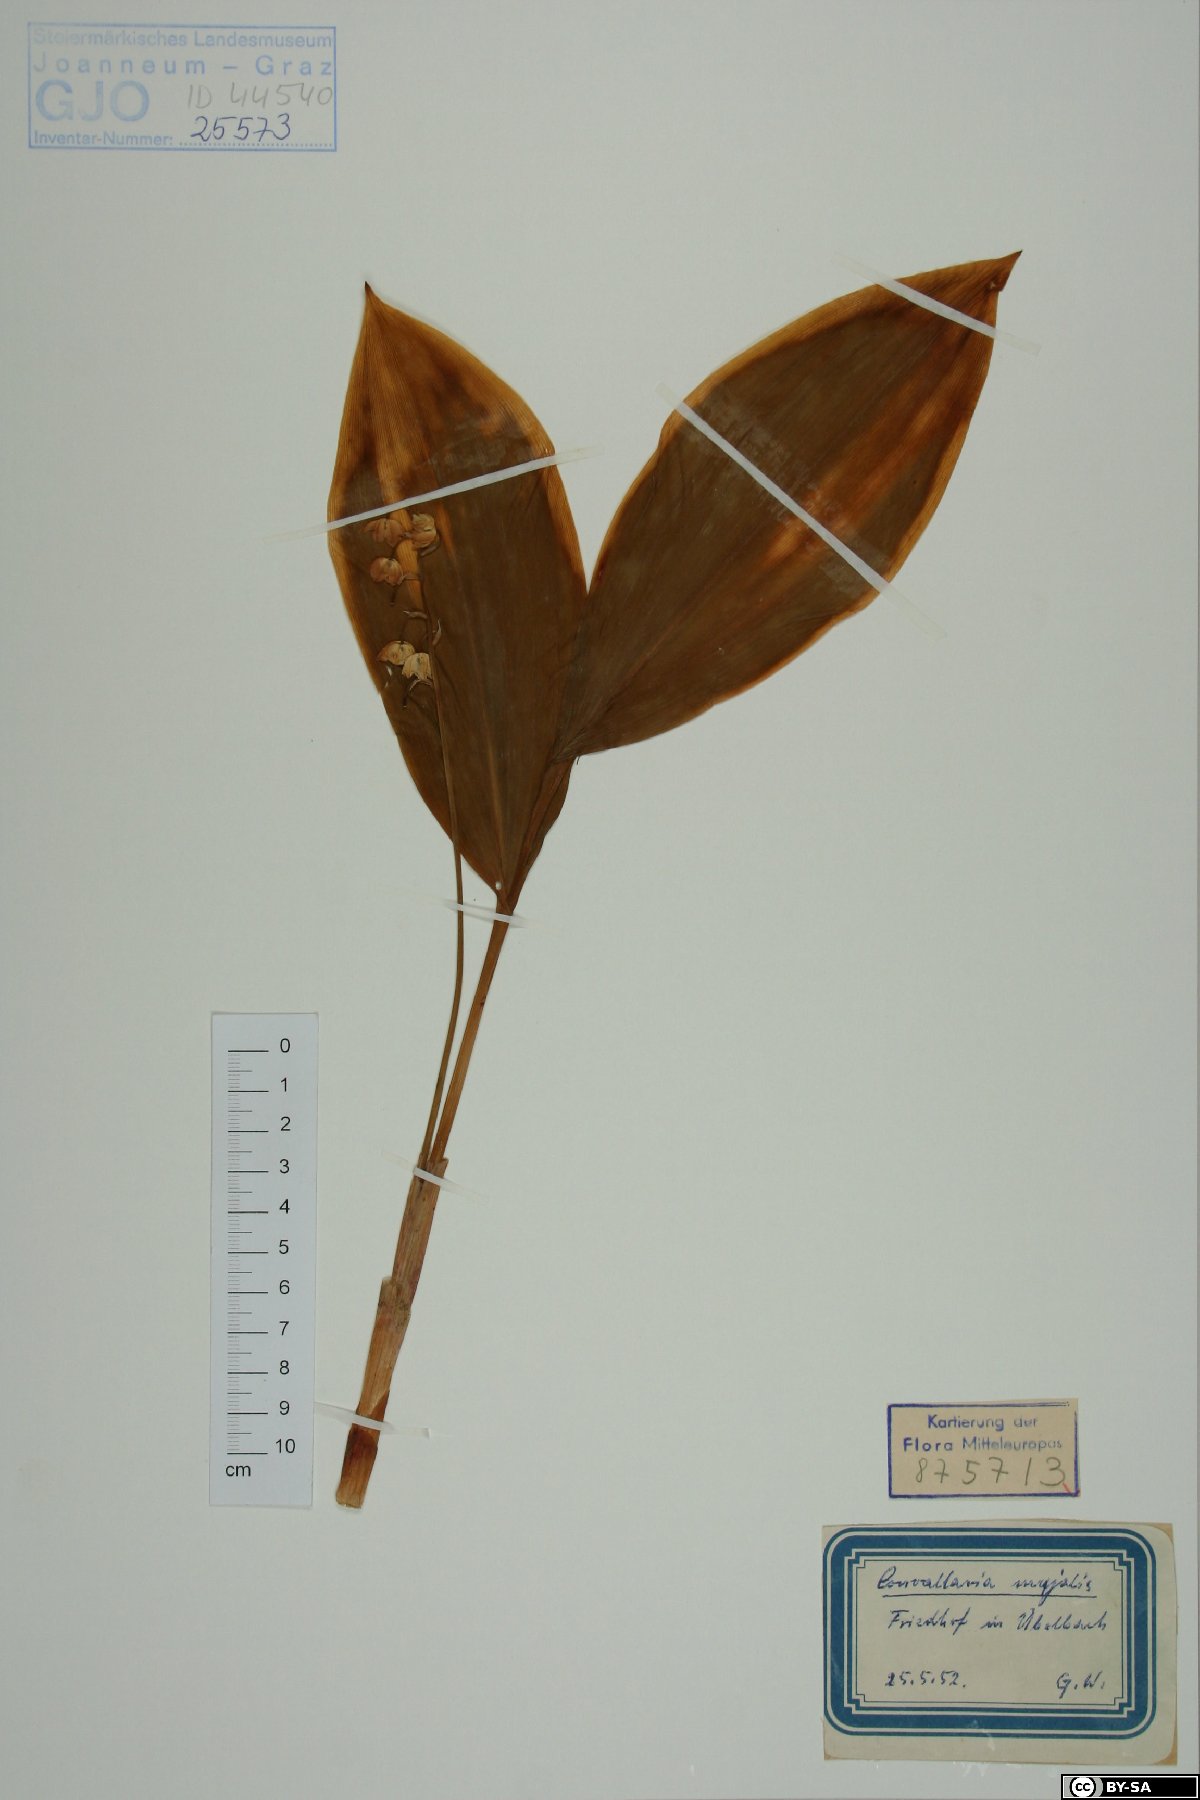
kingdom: Plantae
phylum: Tracheophyta
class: Liliopsida
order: Asparagales
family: Asparagaceae
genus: Convallaria
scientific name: Convallaria majalis
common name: Lily-of-the-valley
